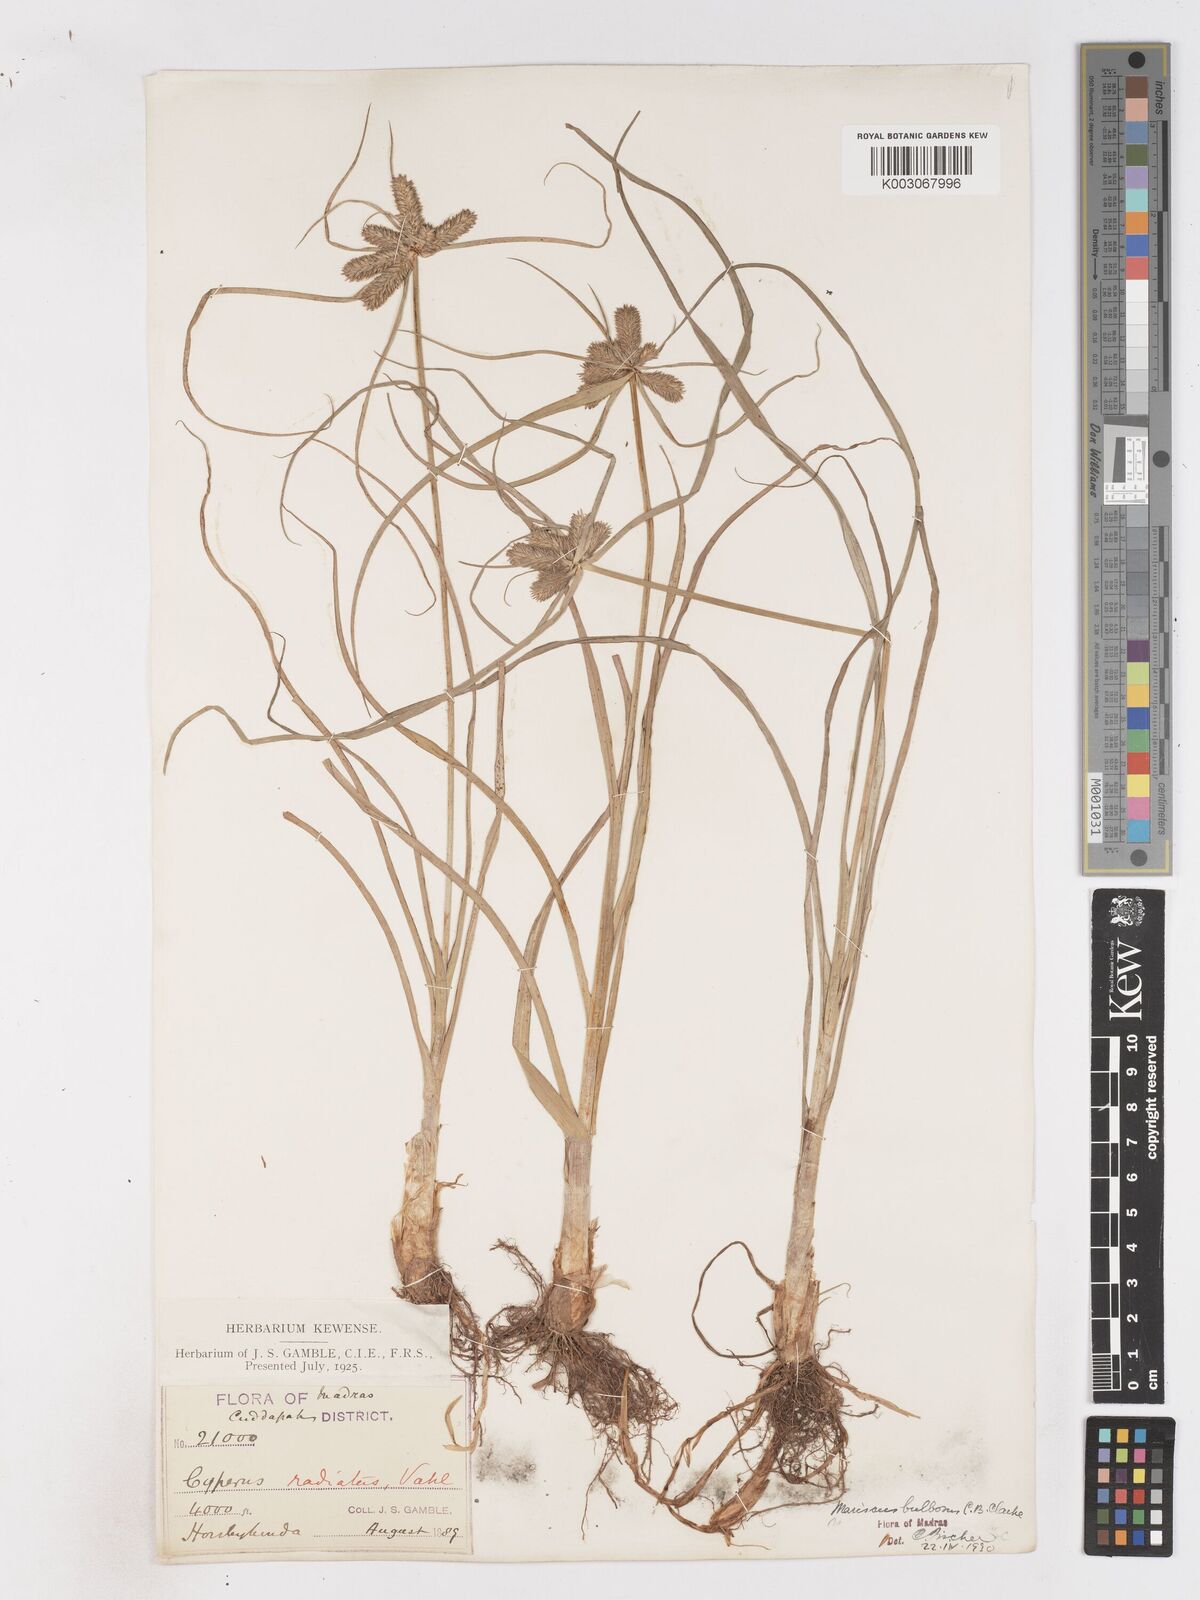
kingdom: Plantae
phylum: Tracheophyta
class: Liliopsida
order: Poales
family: Cyperaceae
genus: Cyperus
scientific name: Cyperus clarkei
